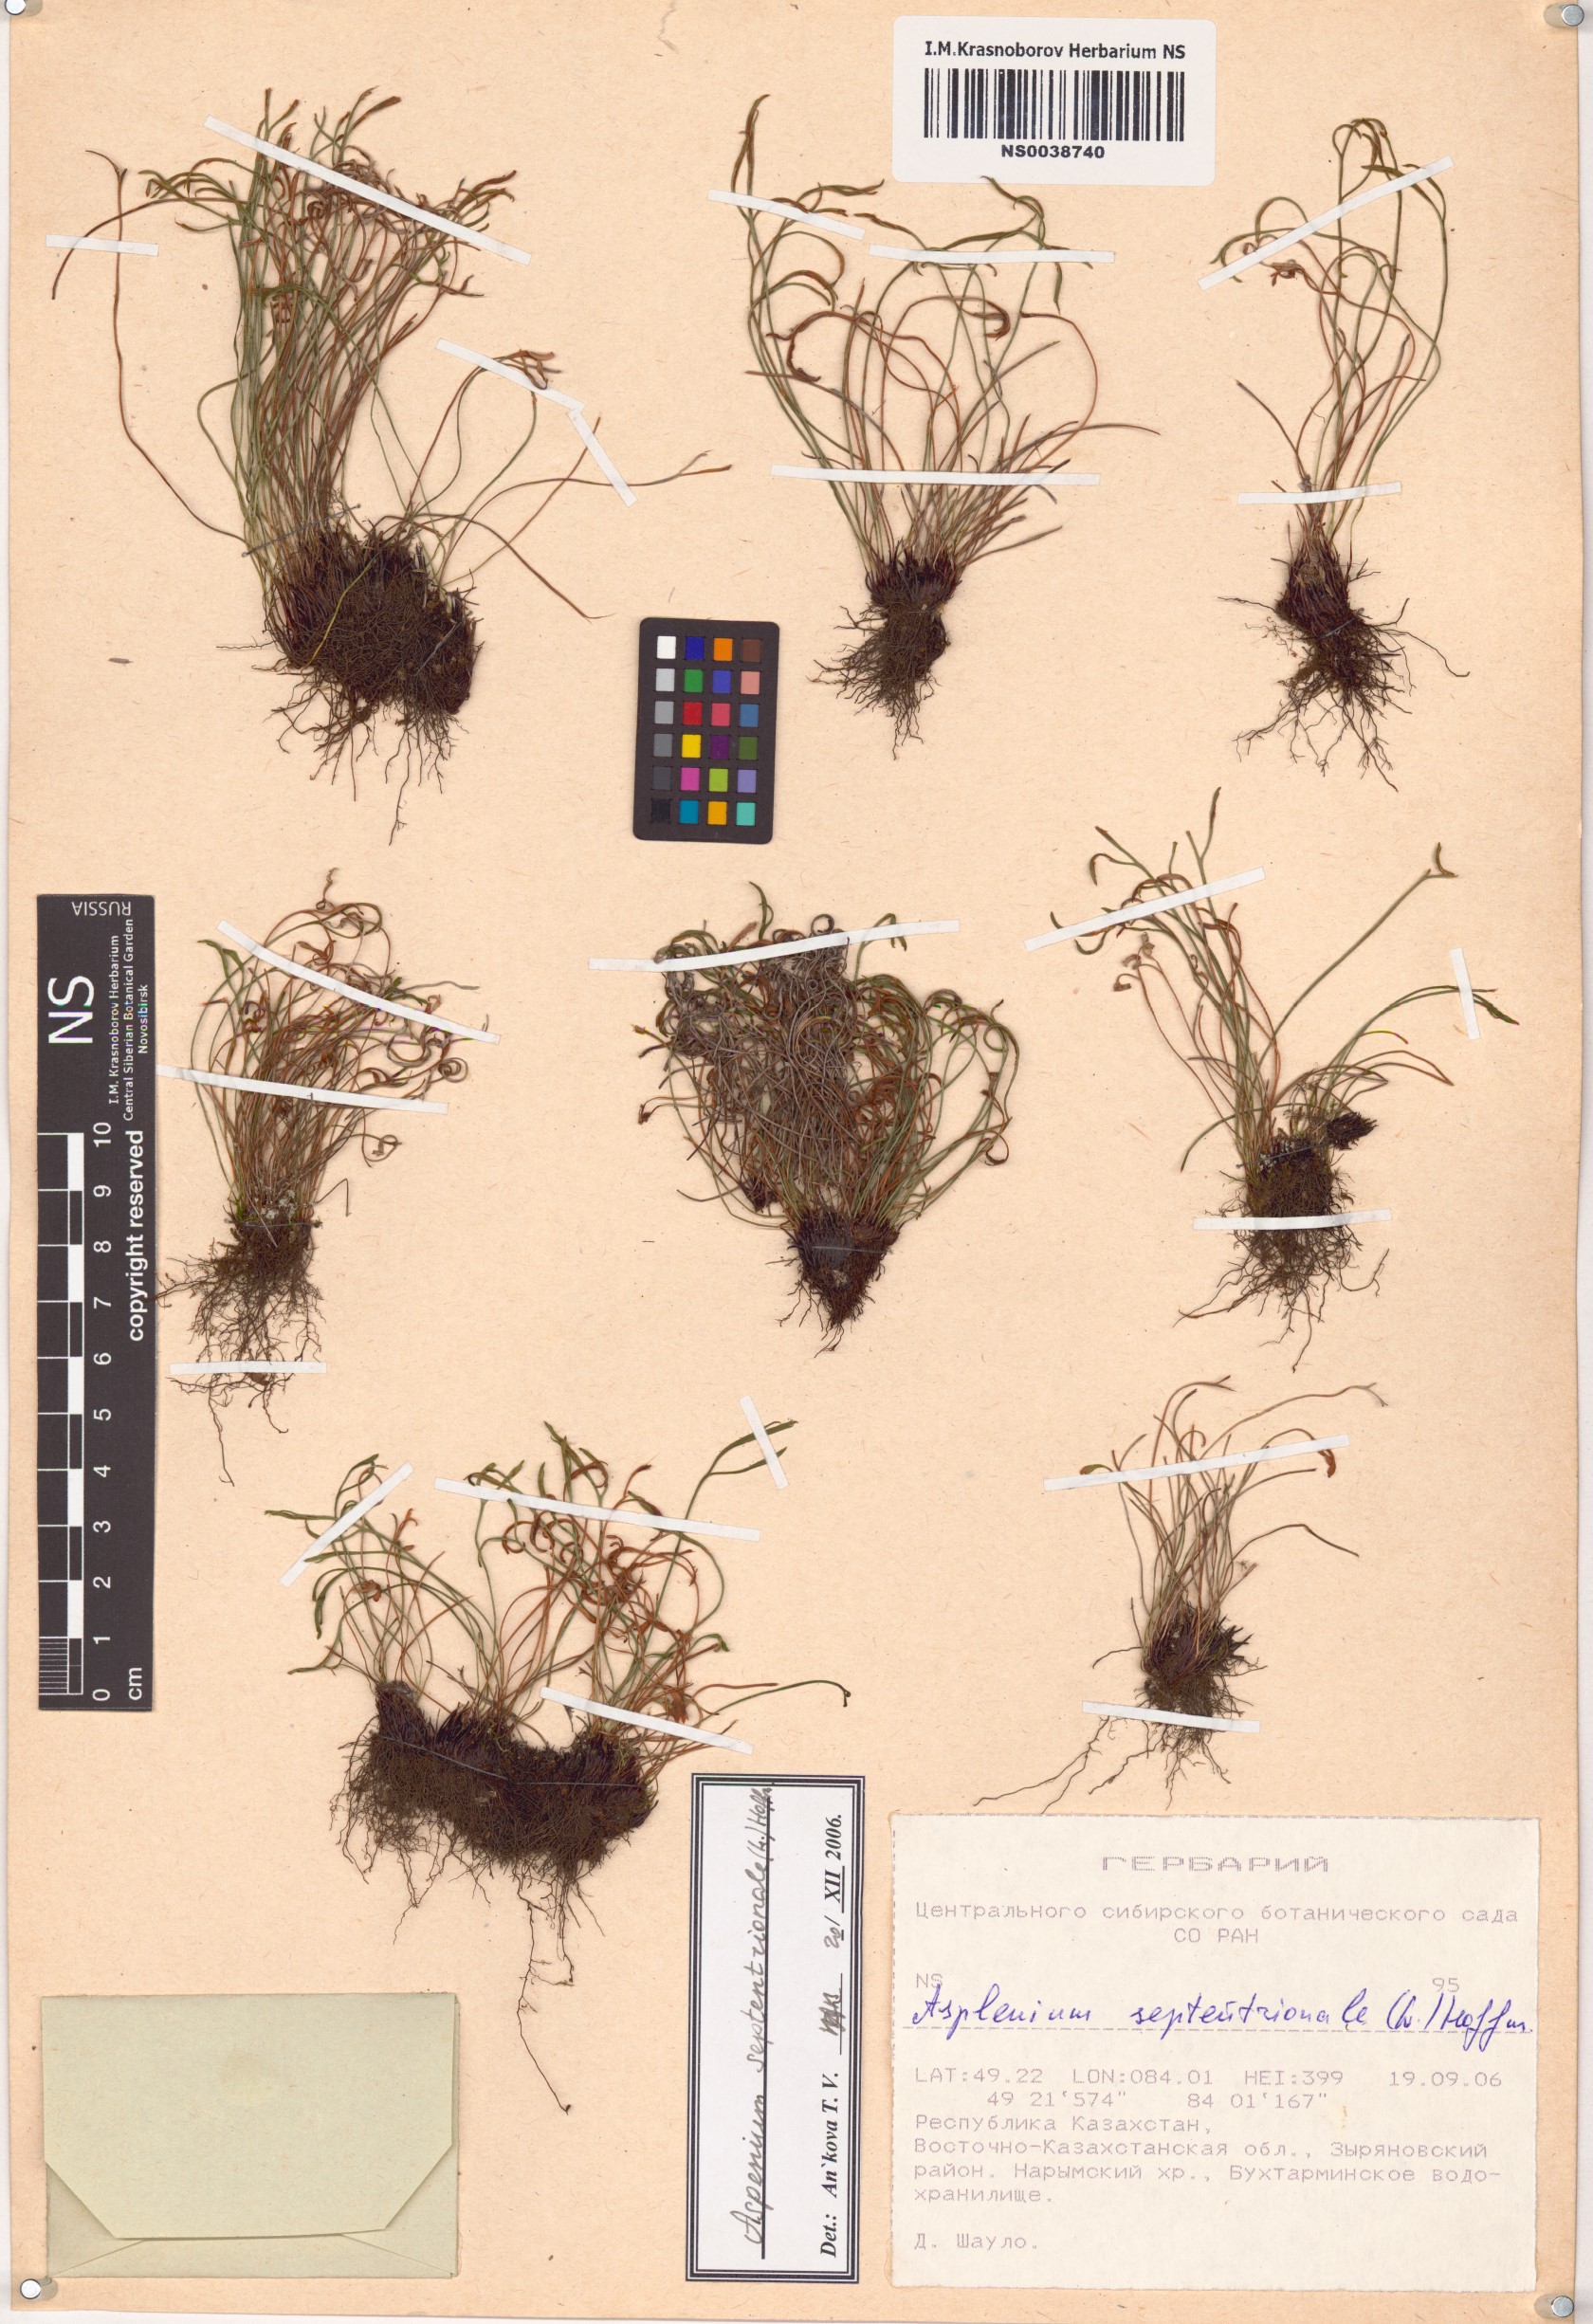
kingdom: Plantae
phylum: Tracheophyta
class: Polypodiopsida
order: Polypodiales
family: Aspleniaceae
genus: Asplenium
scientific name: Asplenium septentrionale
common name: Forked spleenwort
